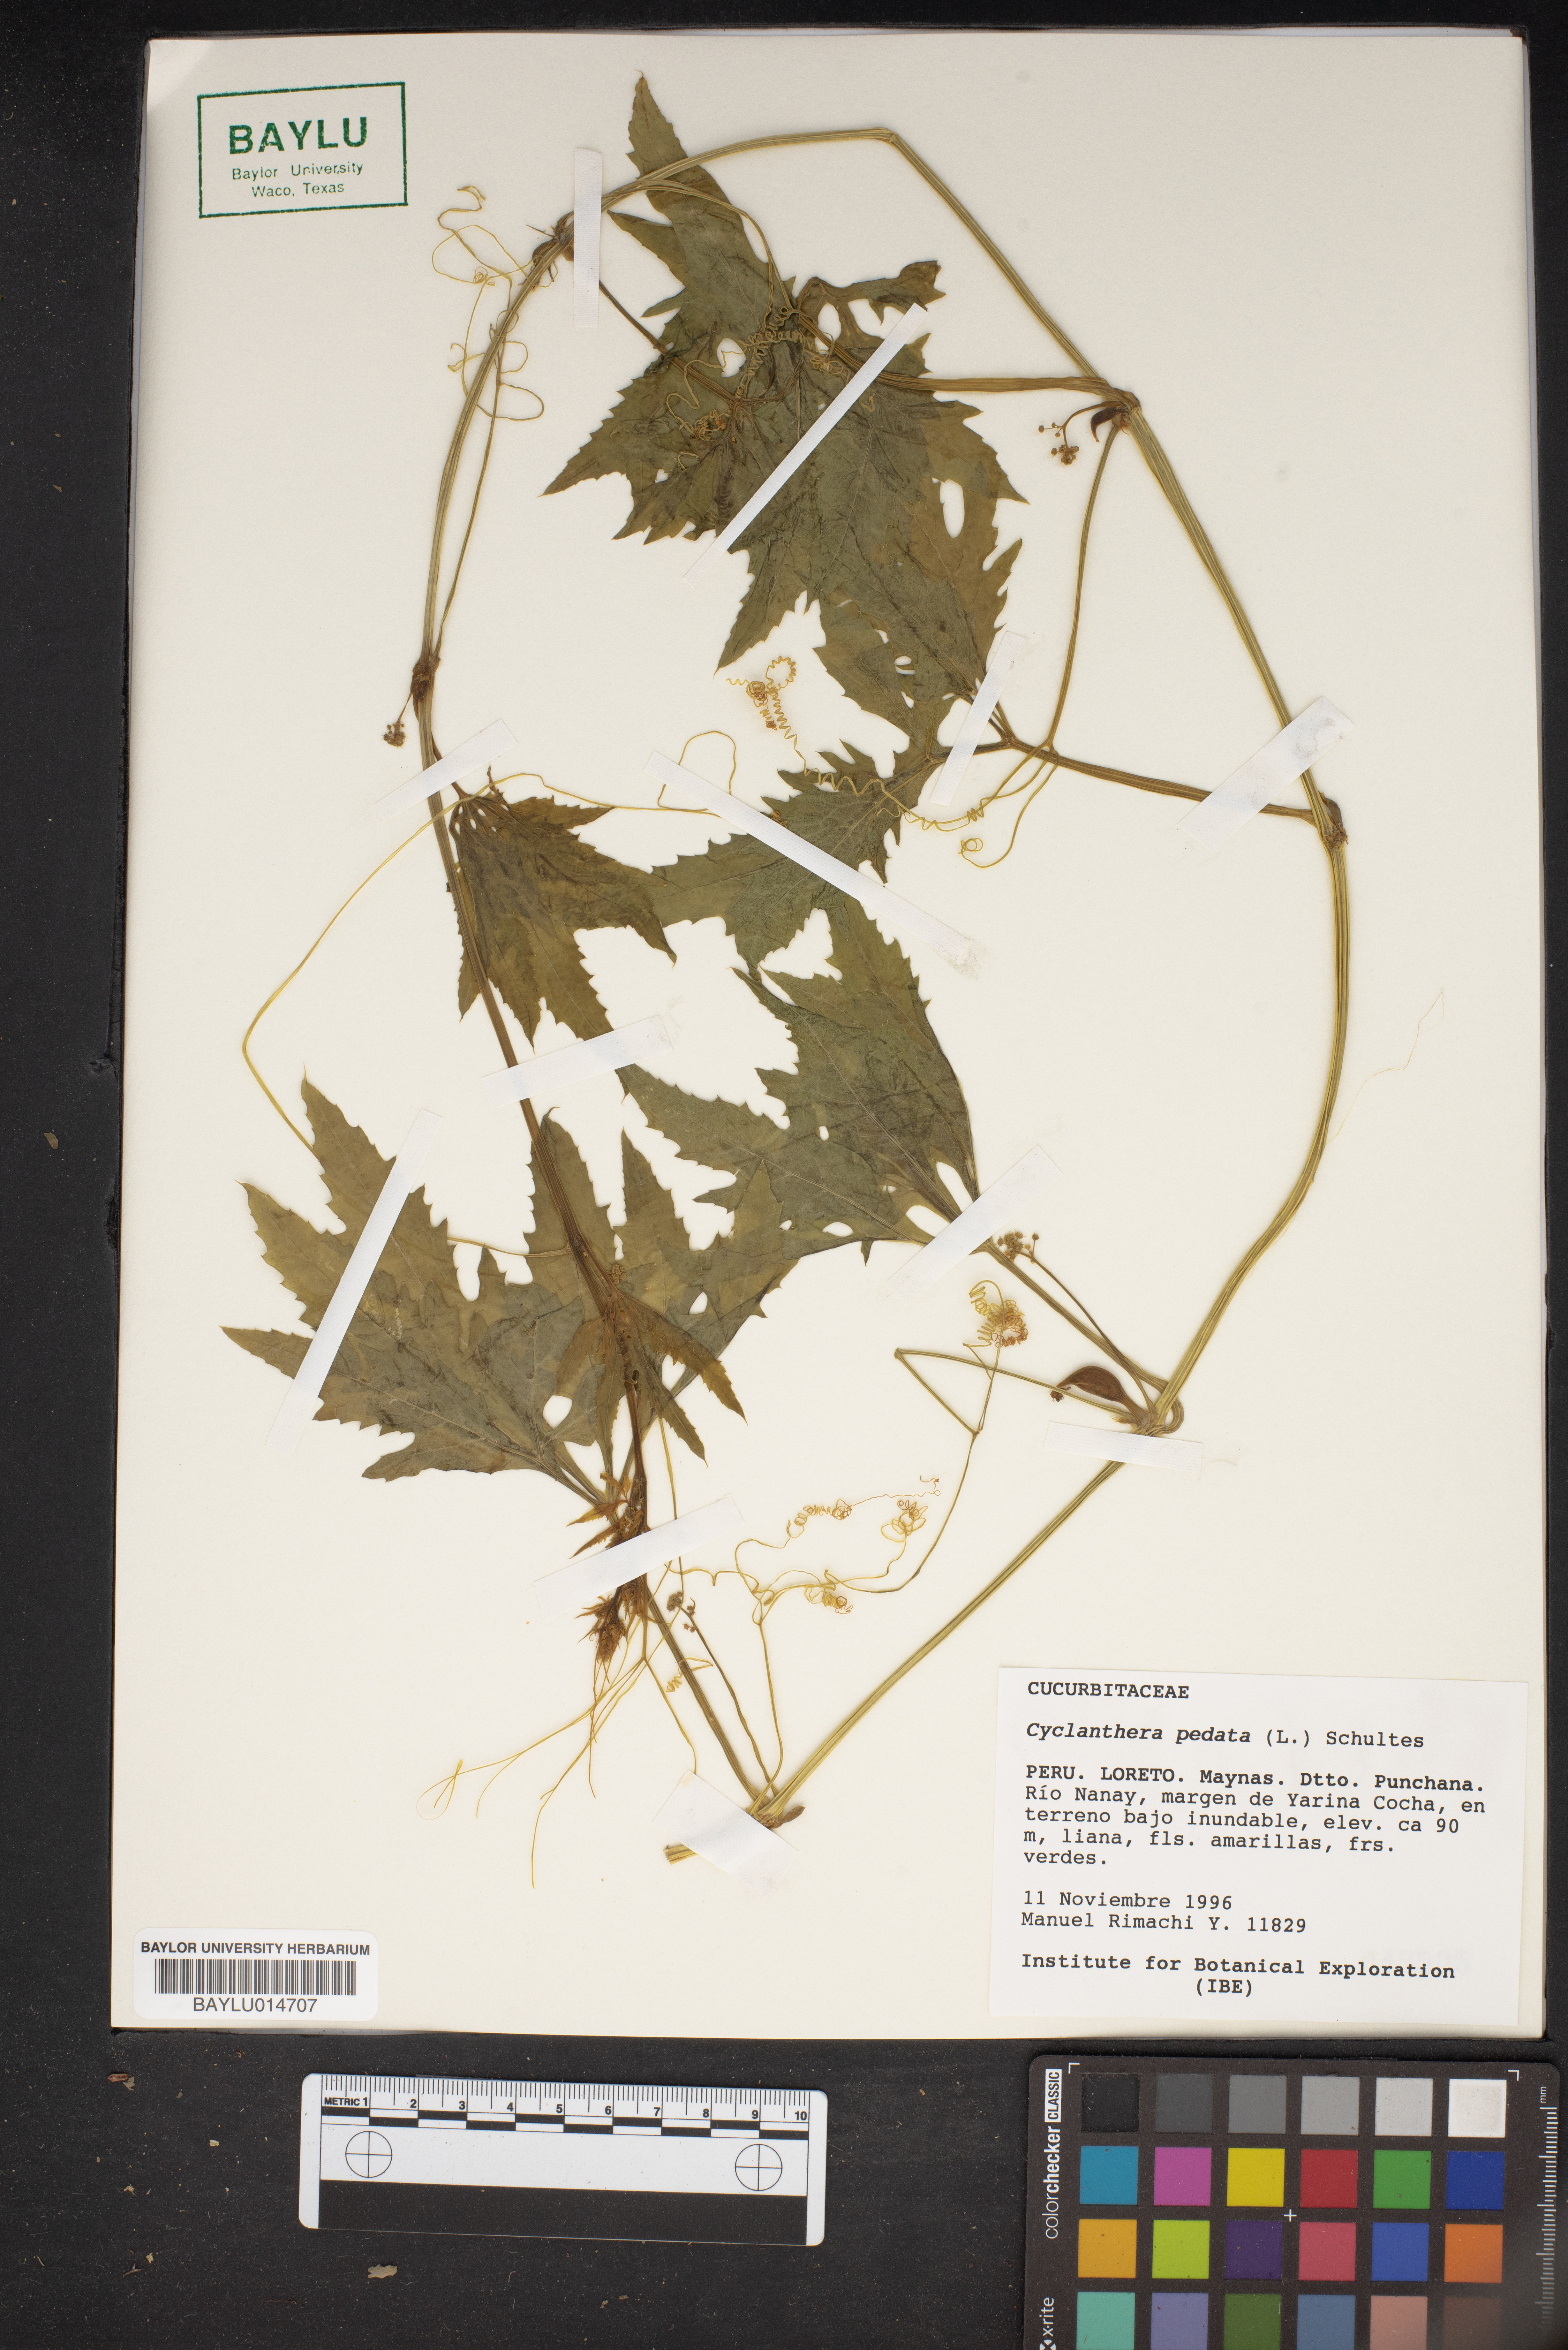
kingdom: Plantae
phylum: Tracheophyta
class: Magnoliopsida
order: Cucurbitales
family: Cucurbitaceae
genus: Cyclanthera
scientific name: Cyclanthera pedata
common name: Slipper goard
